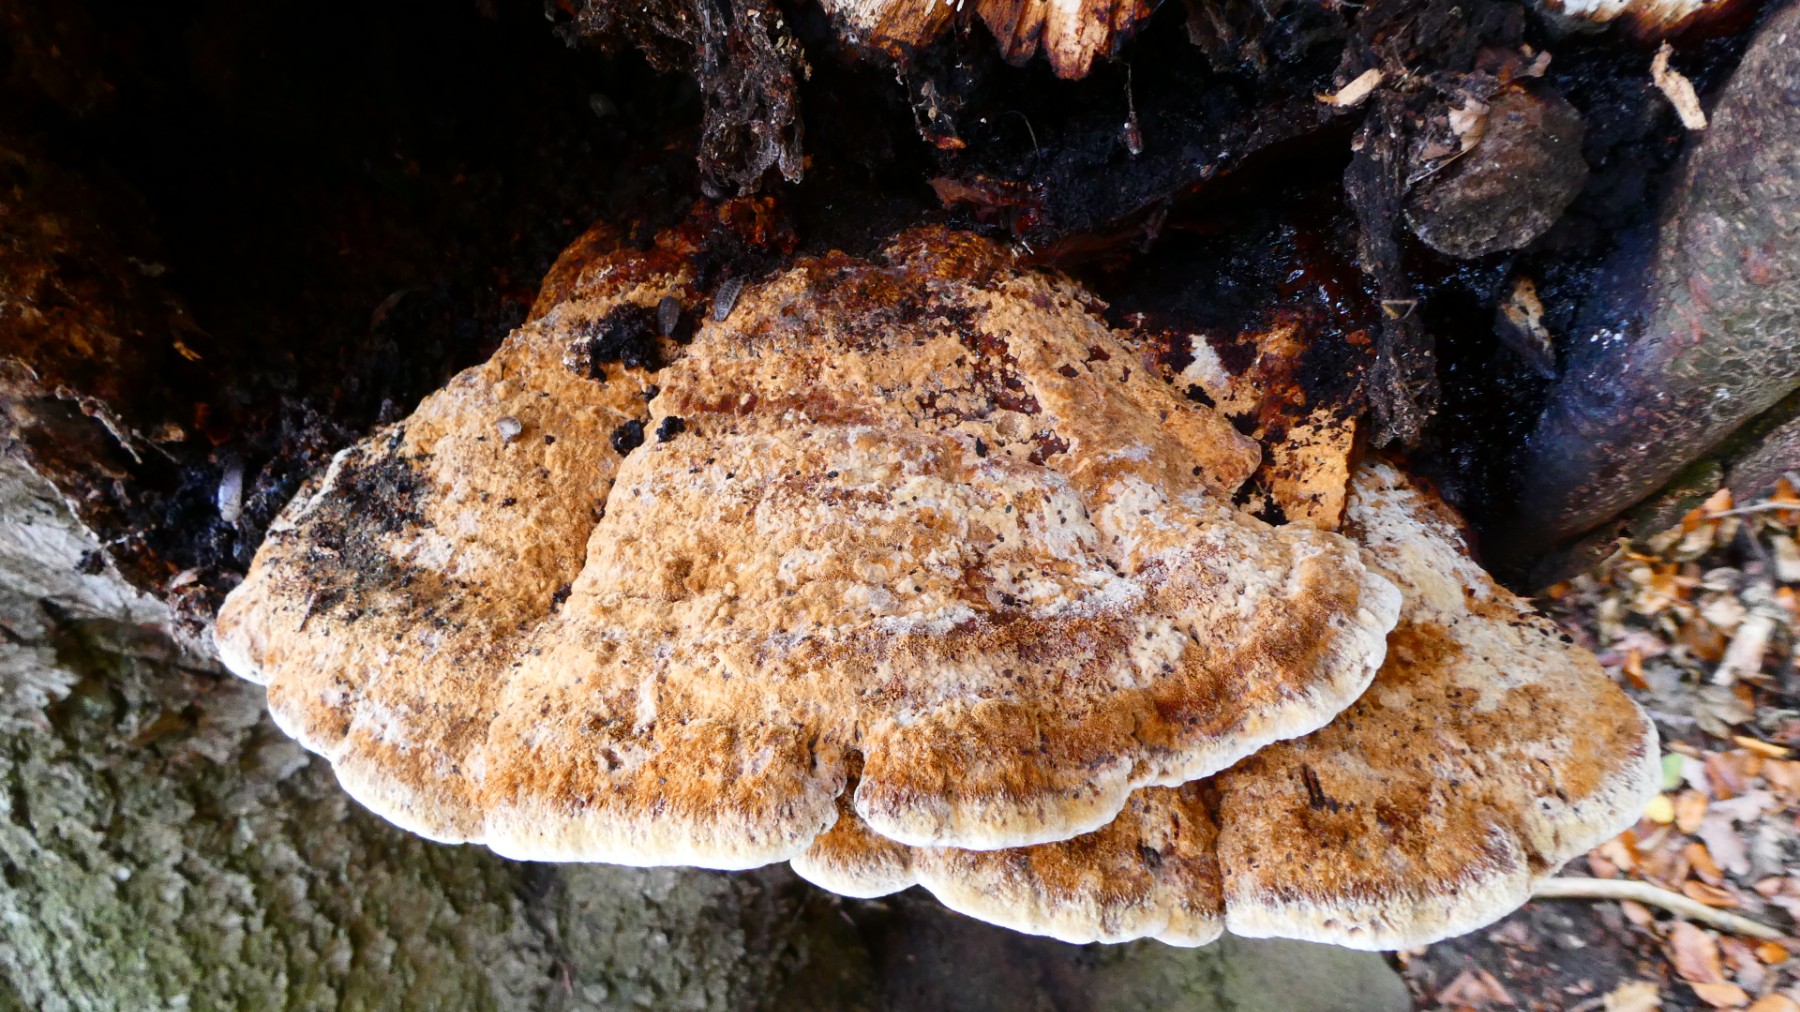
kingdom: Fungi
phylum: Basidiomycota
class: Agaricomycetes
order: Hymenochaetales
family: Hymenochaetaceae
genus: Inonotus
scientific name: Inonotus cuticularis
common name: kroghåret spejlporesvamp
